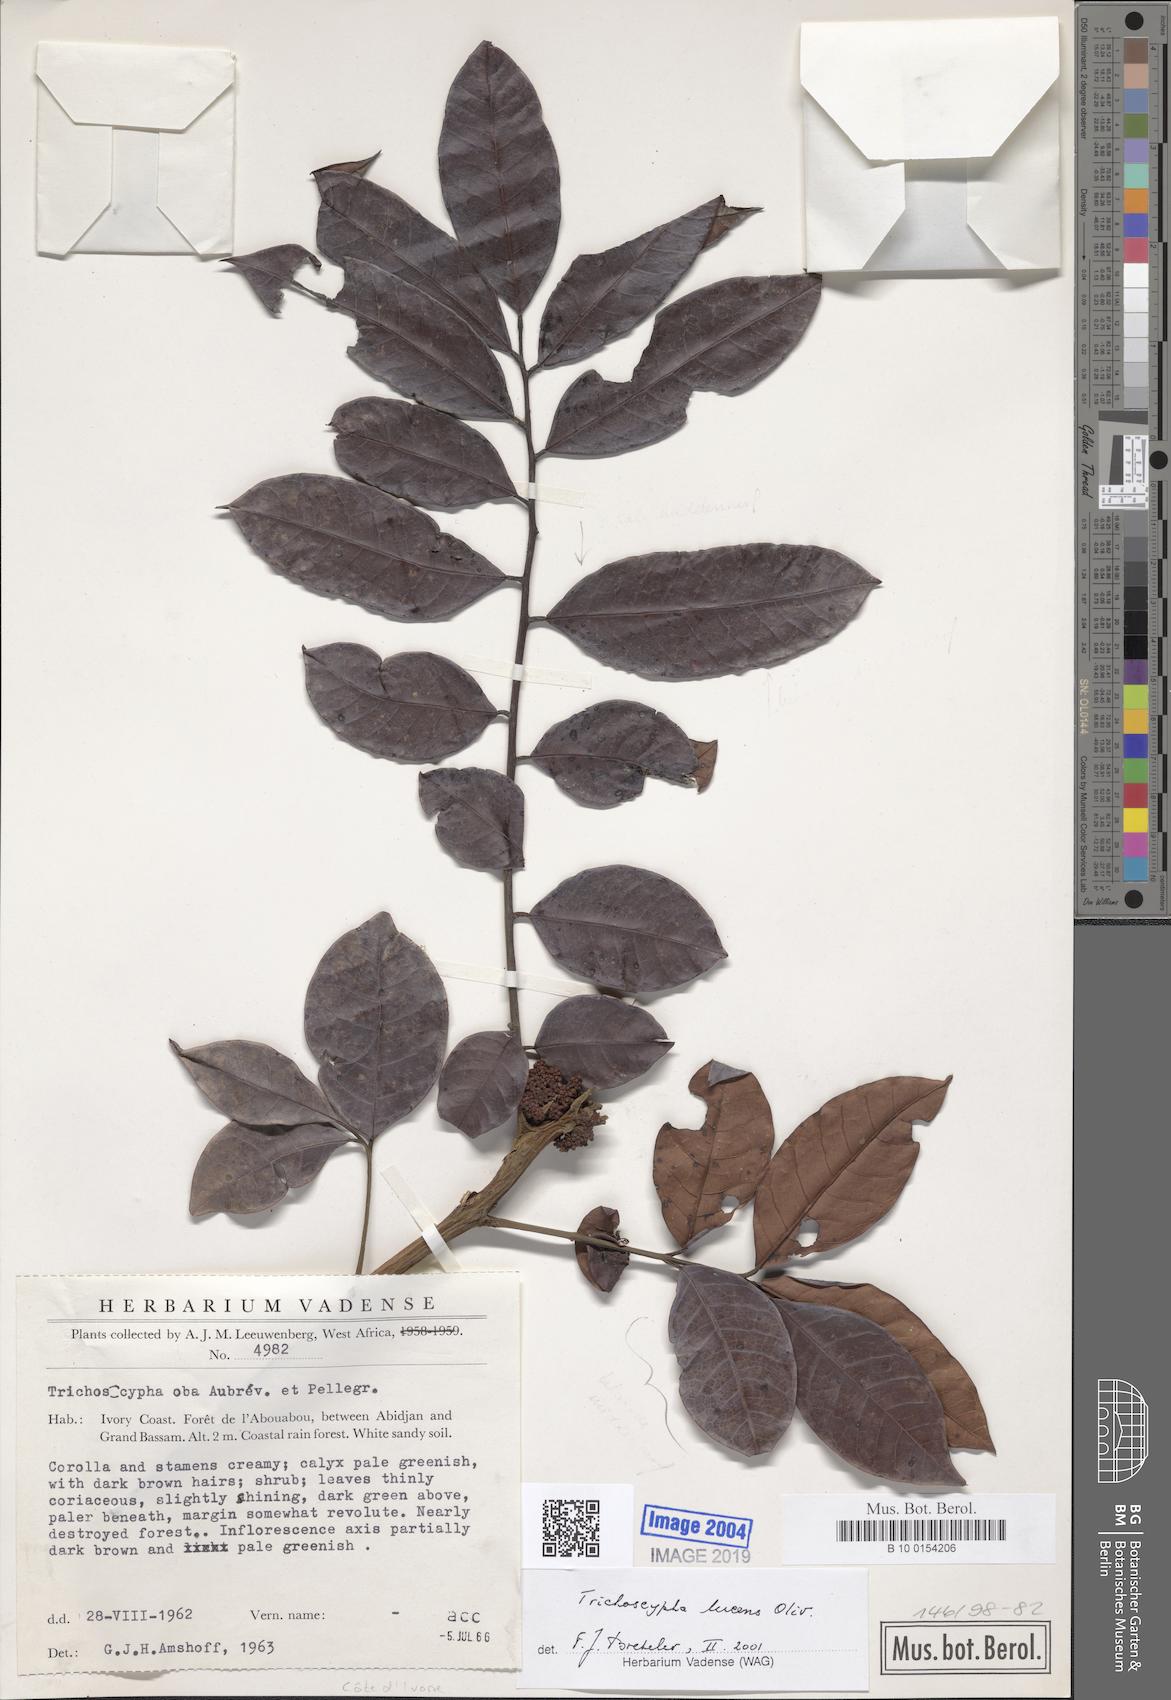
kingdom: Plantae
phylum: Tracheophyta
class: Magnoliopsida
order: Sapindales
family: Anacardiaceae
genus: Trichoscypha
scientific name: Trichoscypha lucens
